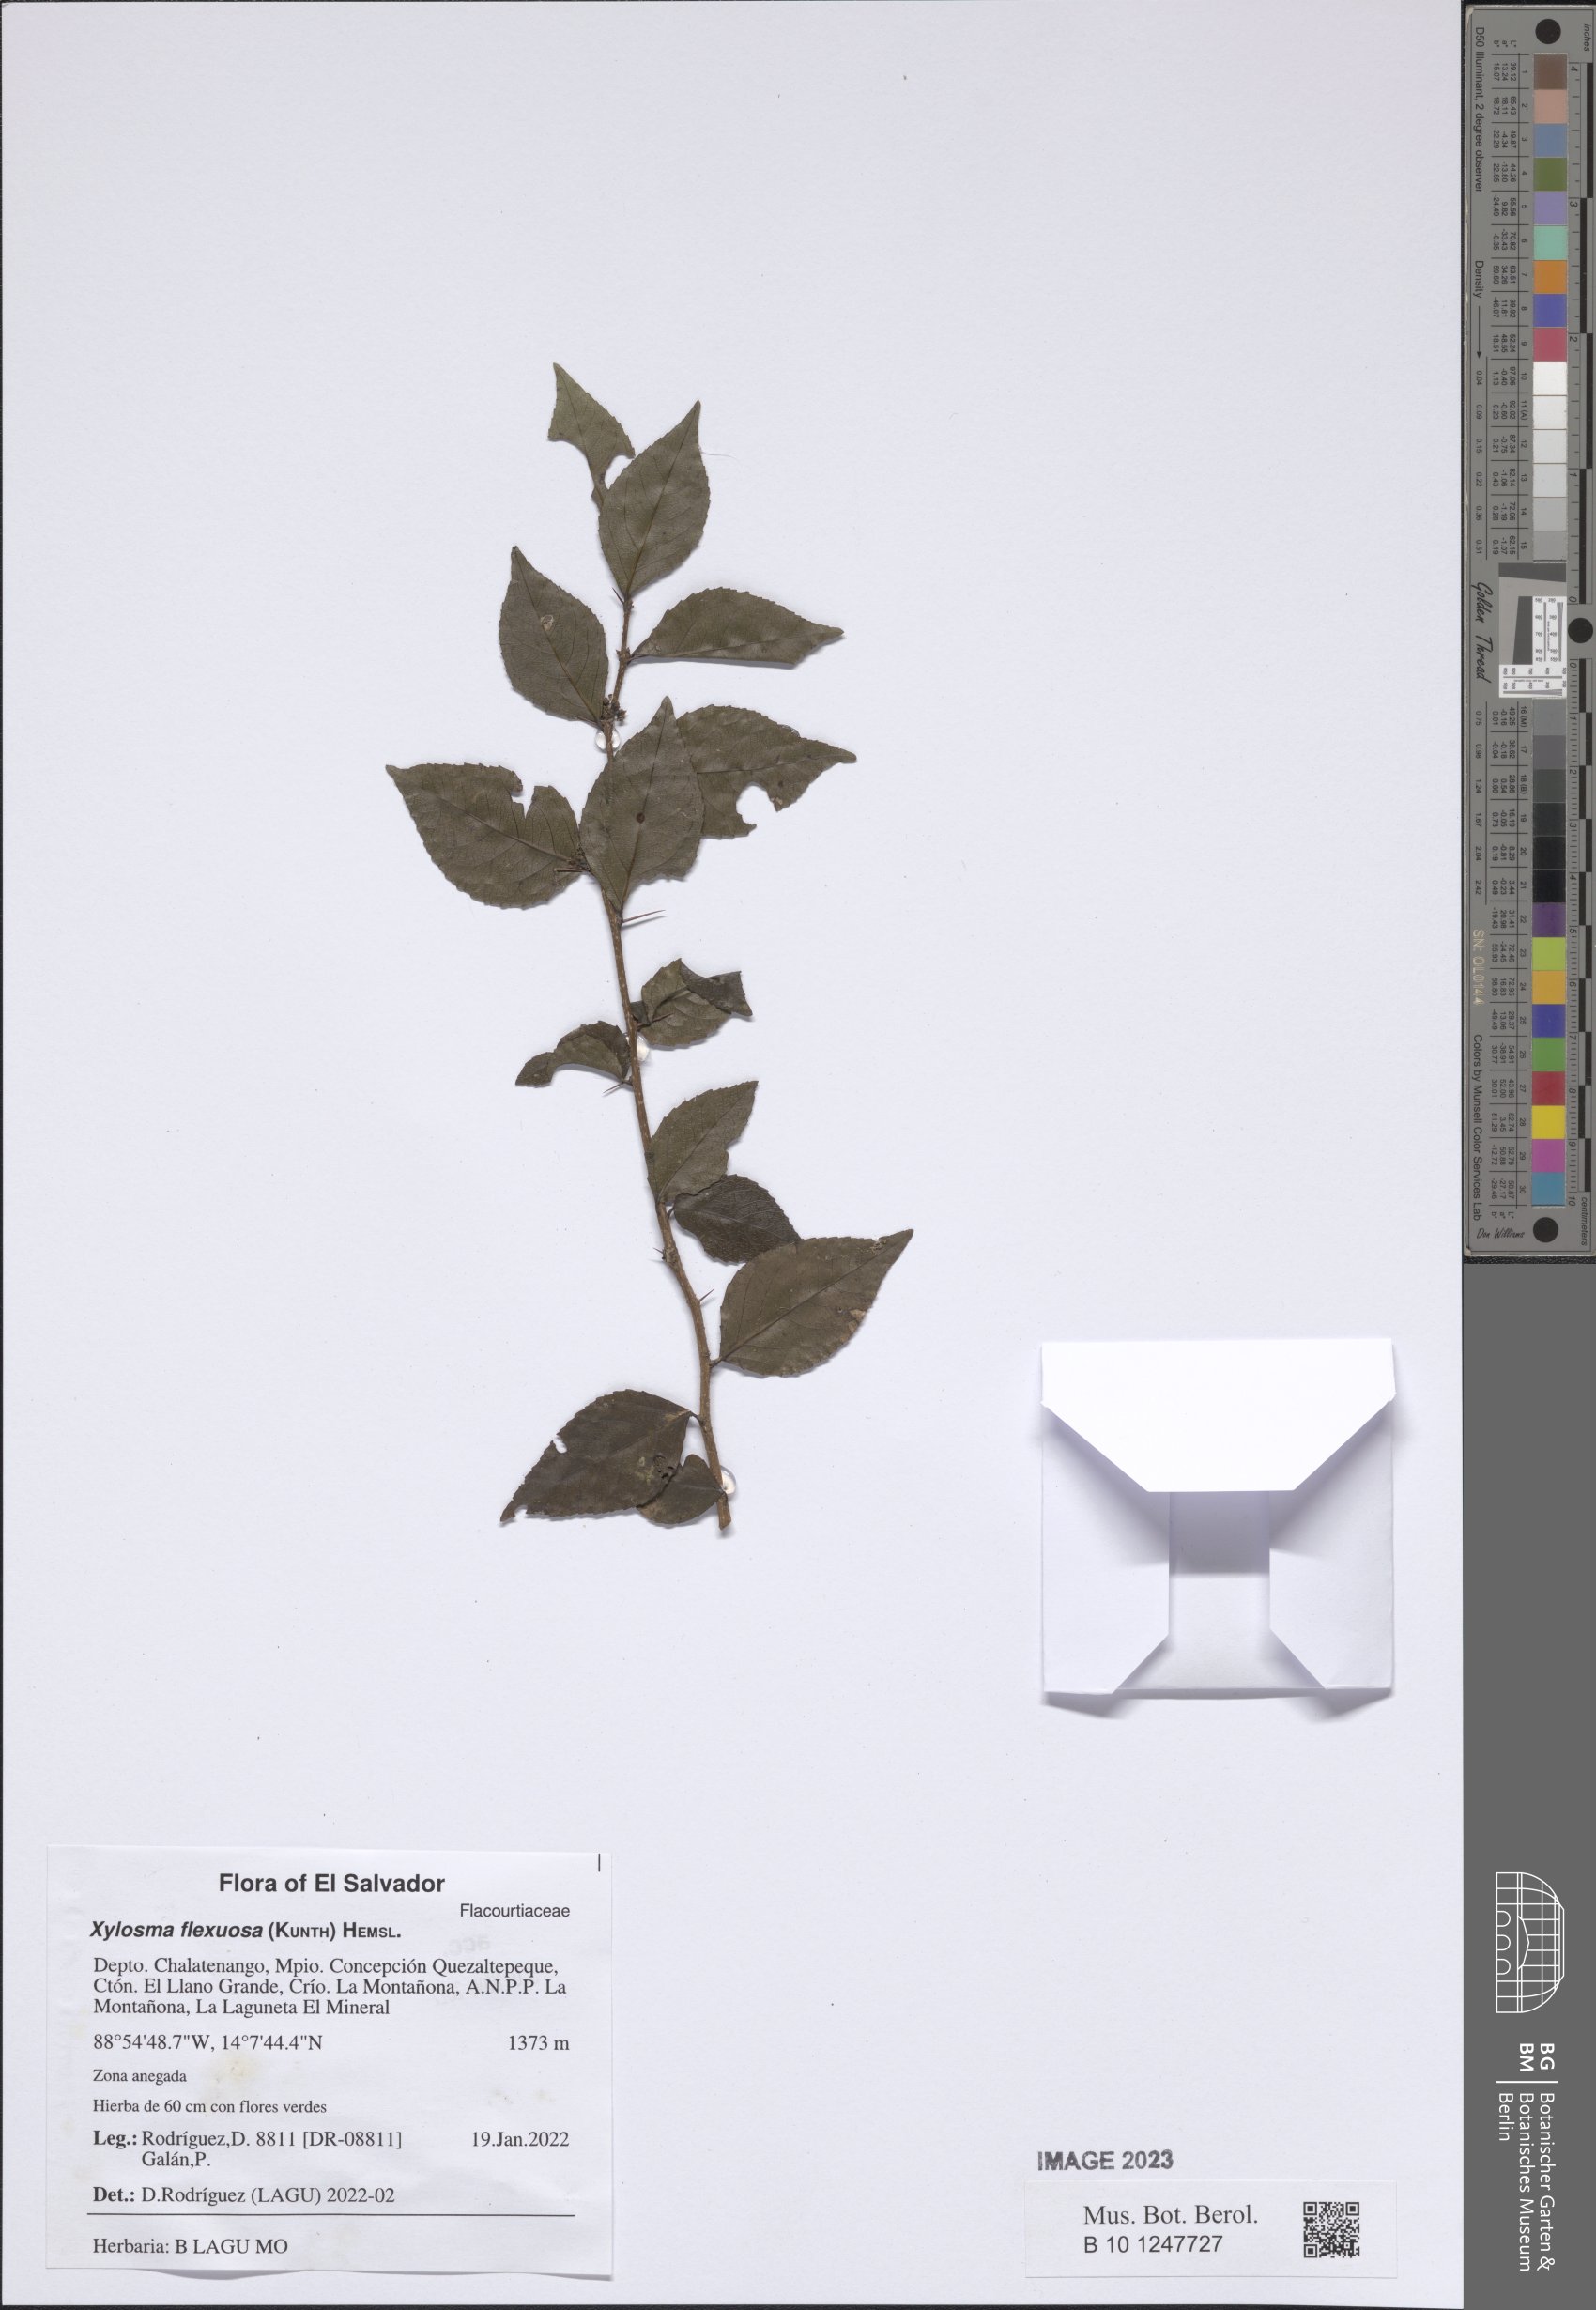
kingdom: Plantae
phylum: Tracheophyta
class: Magnoliopsida
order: Malpighiales
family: Salicaceae
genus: Xylosma
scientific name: Xylosma flexuosa
